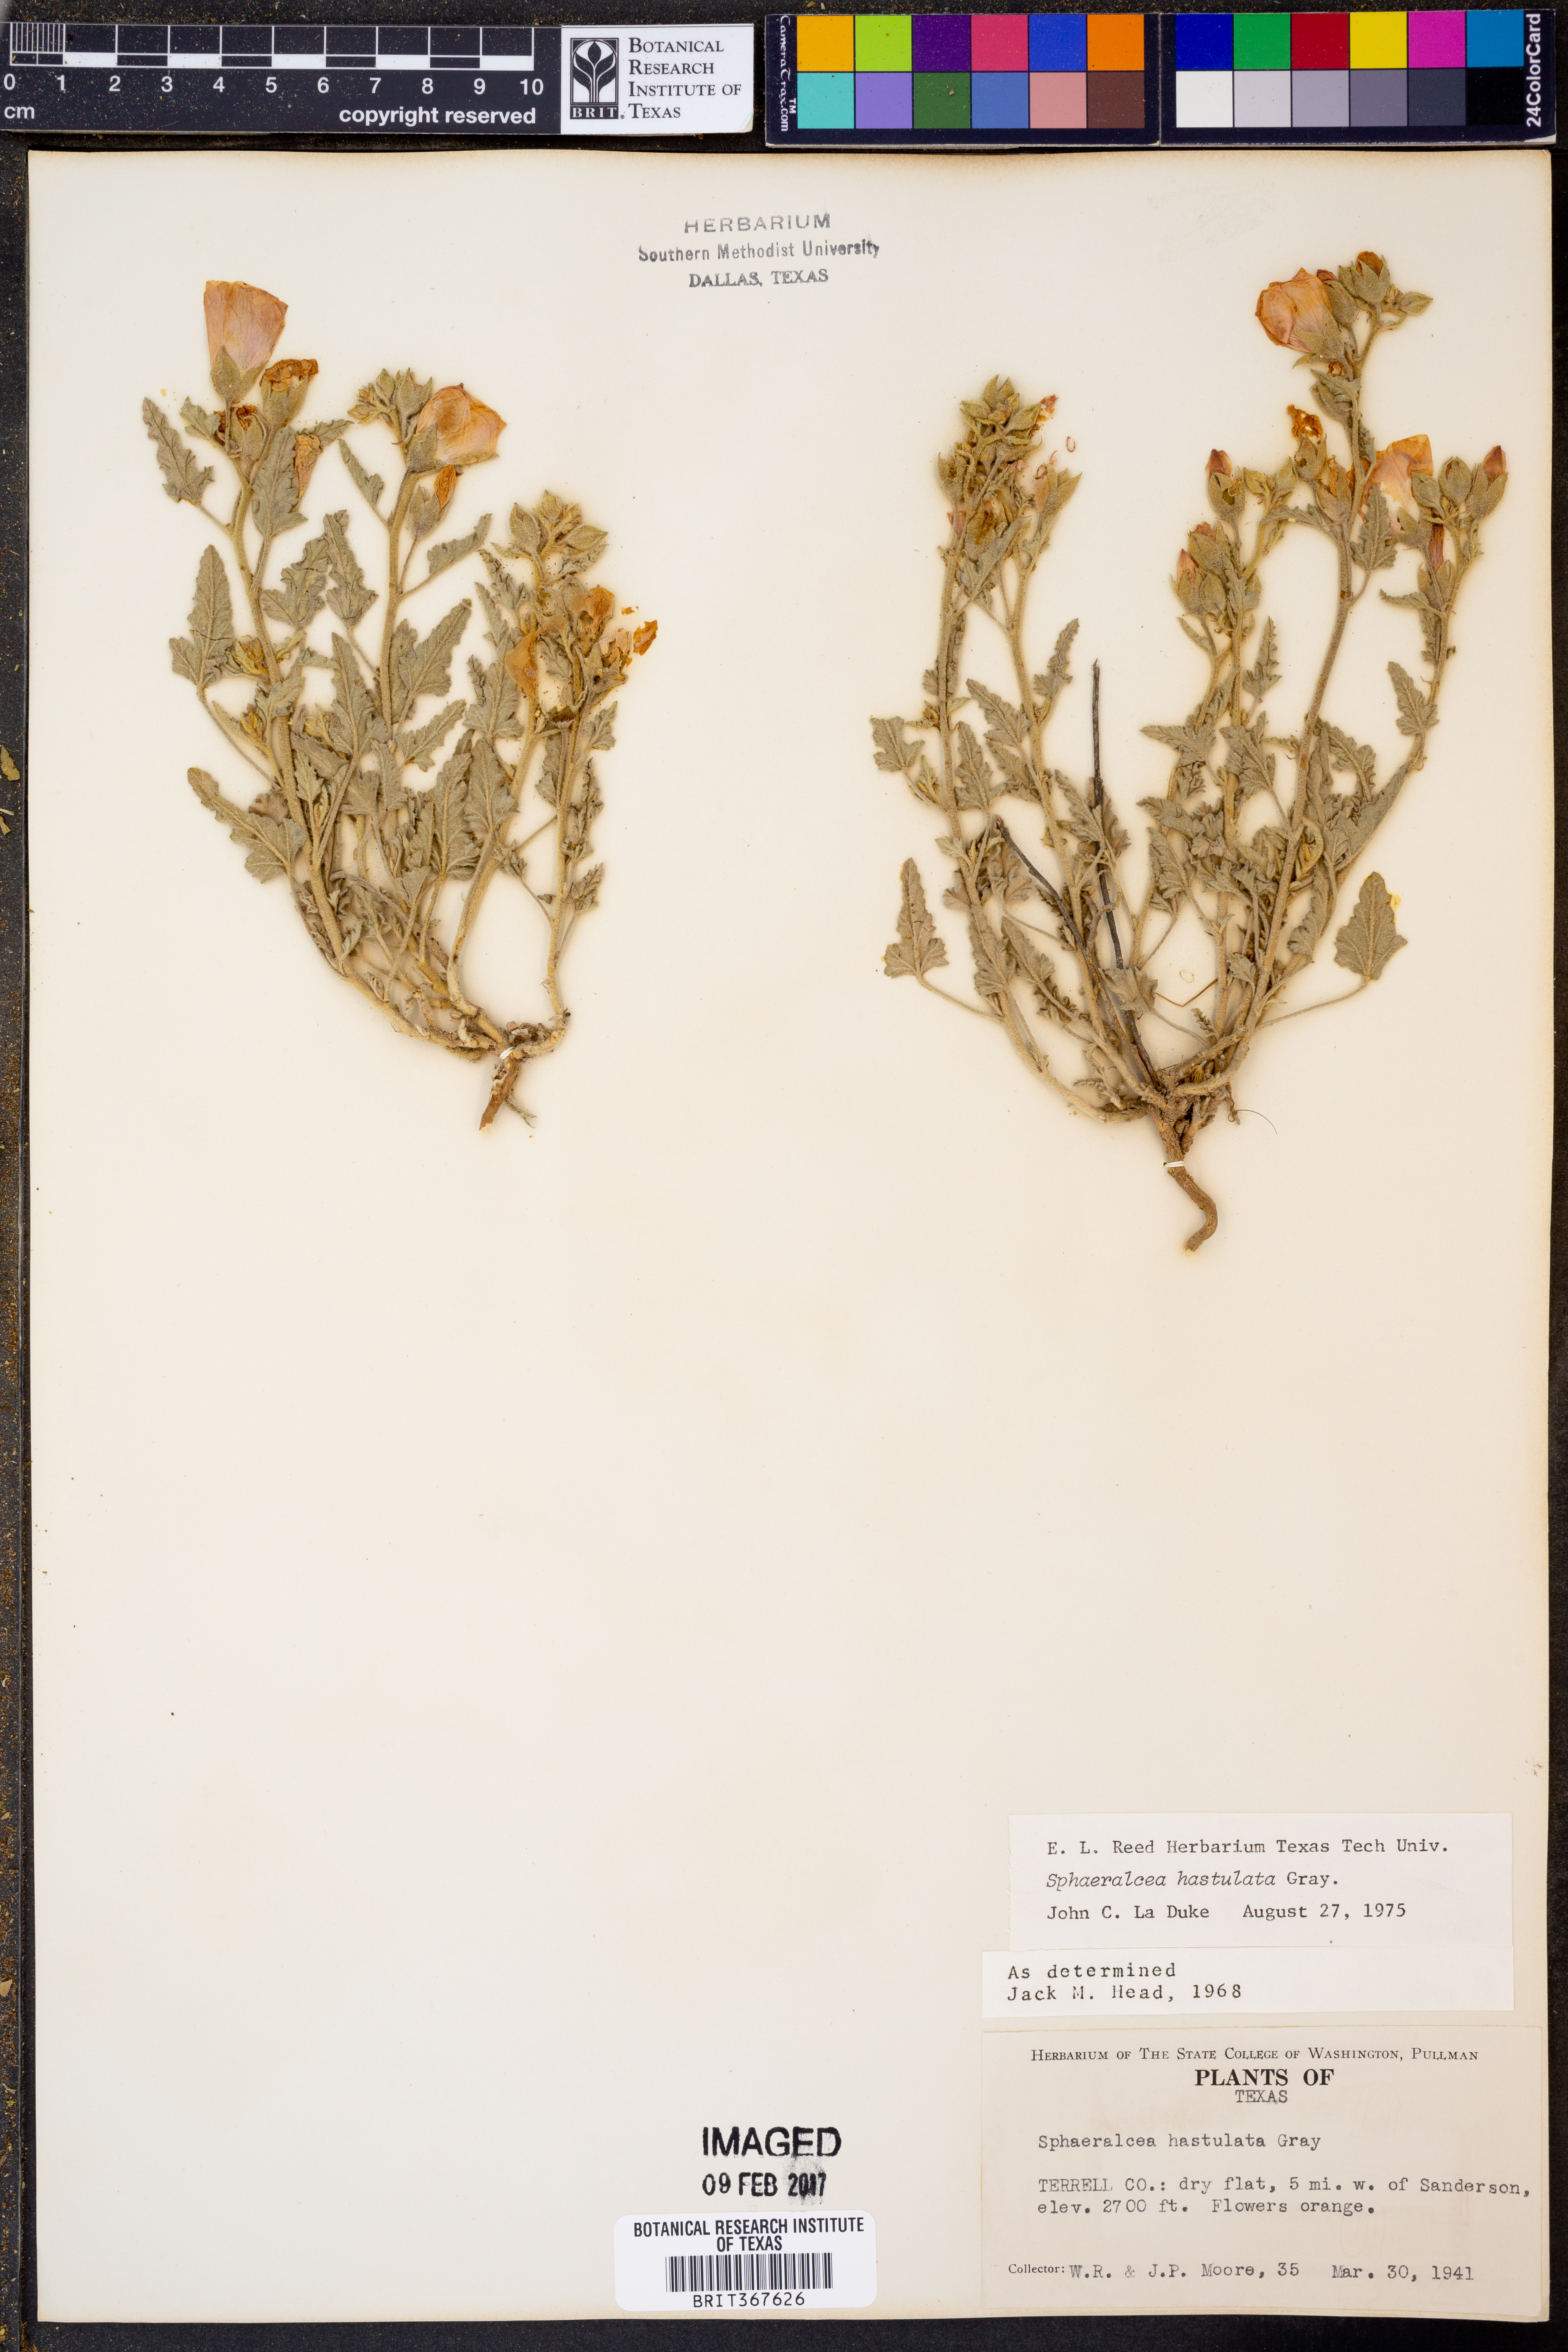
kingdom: Plantae
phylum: Tracheophyta
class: Magnoliopsida
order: Malvales
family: Malvaceae
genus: Sphaeralcea
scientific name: Sphaeralcea hastulata
